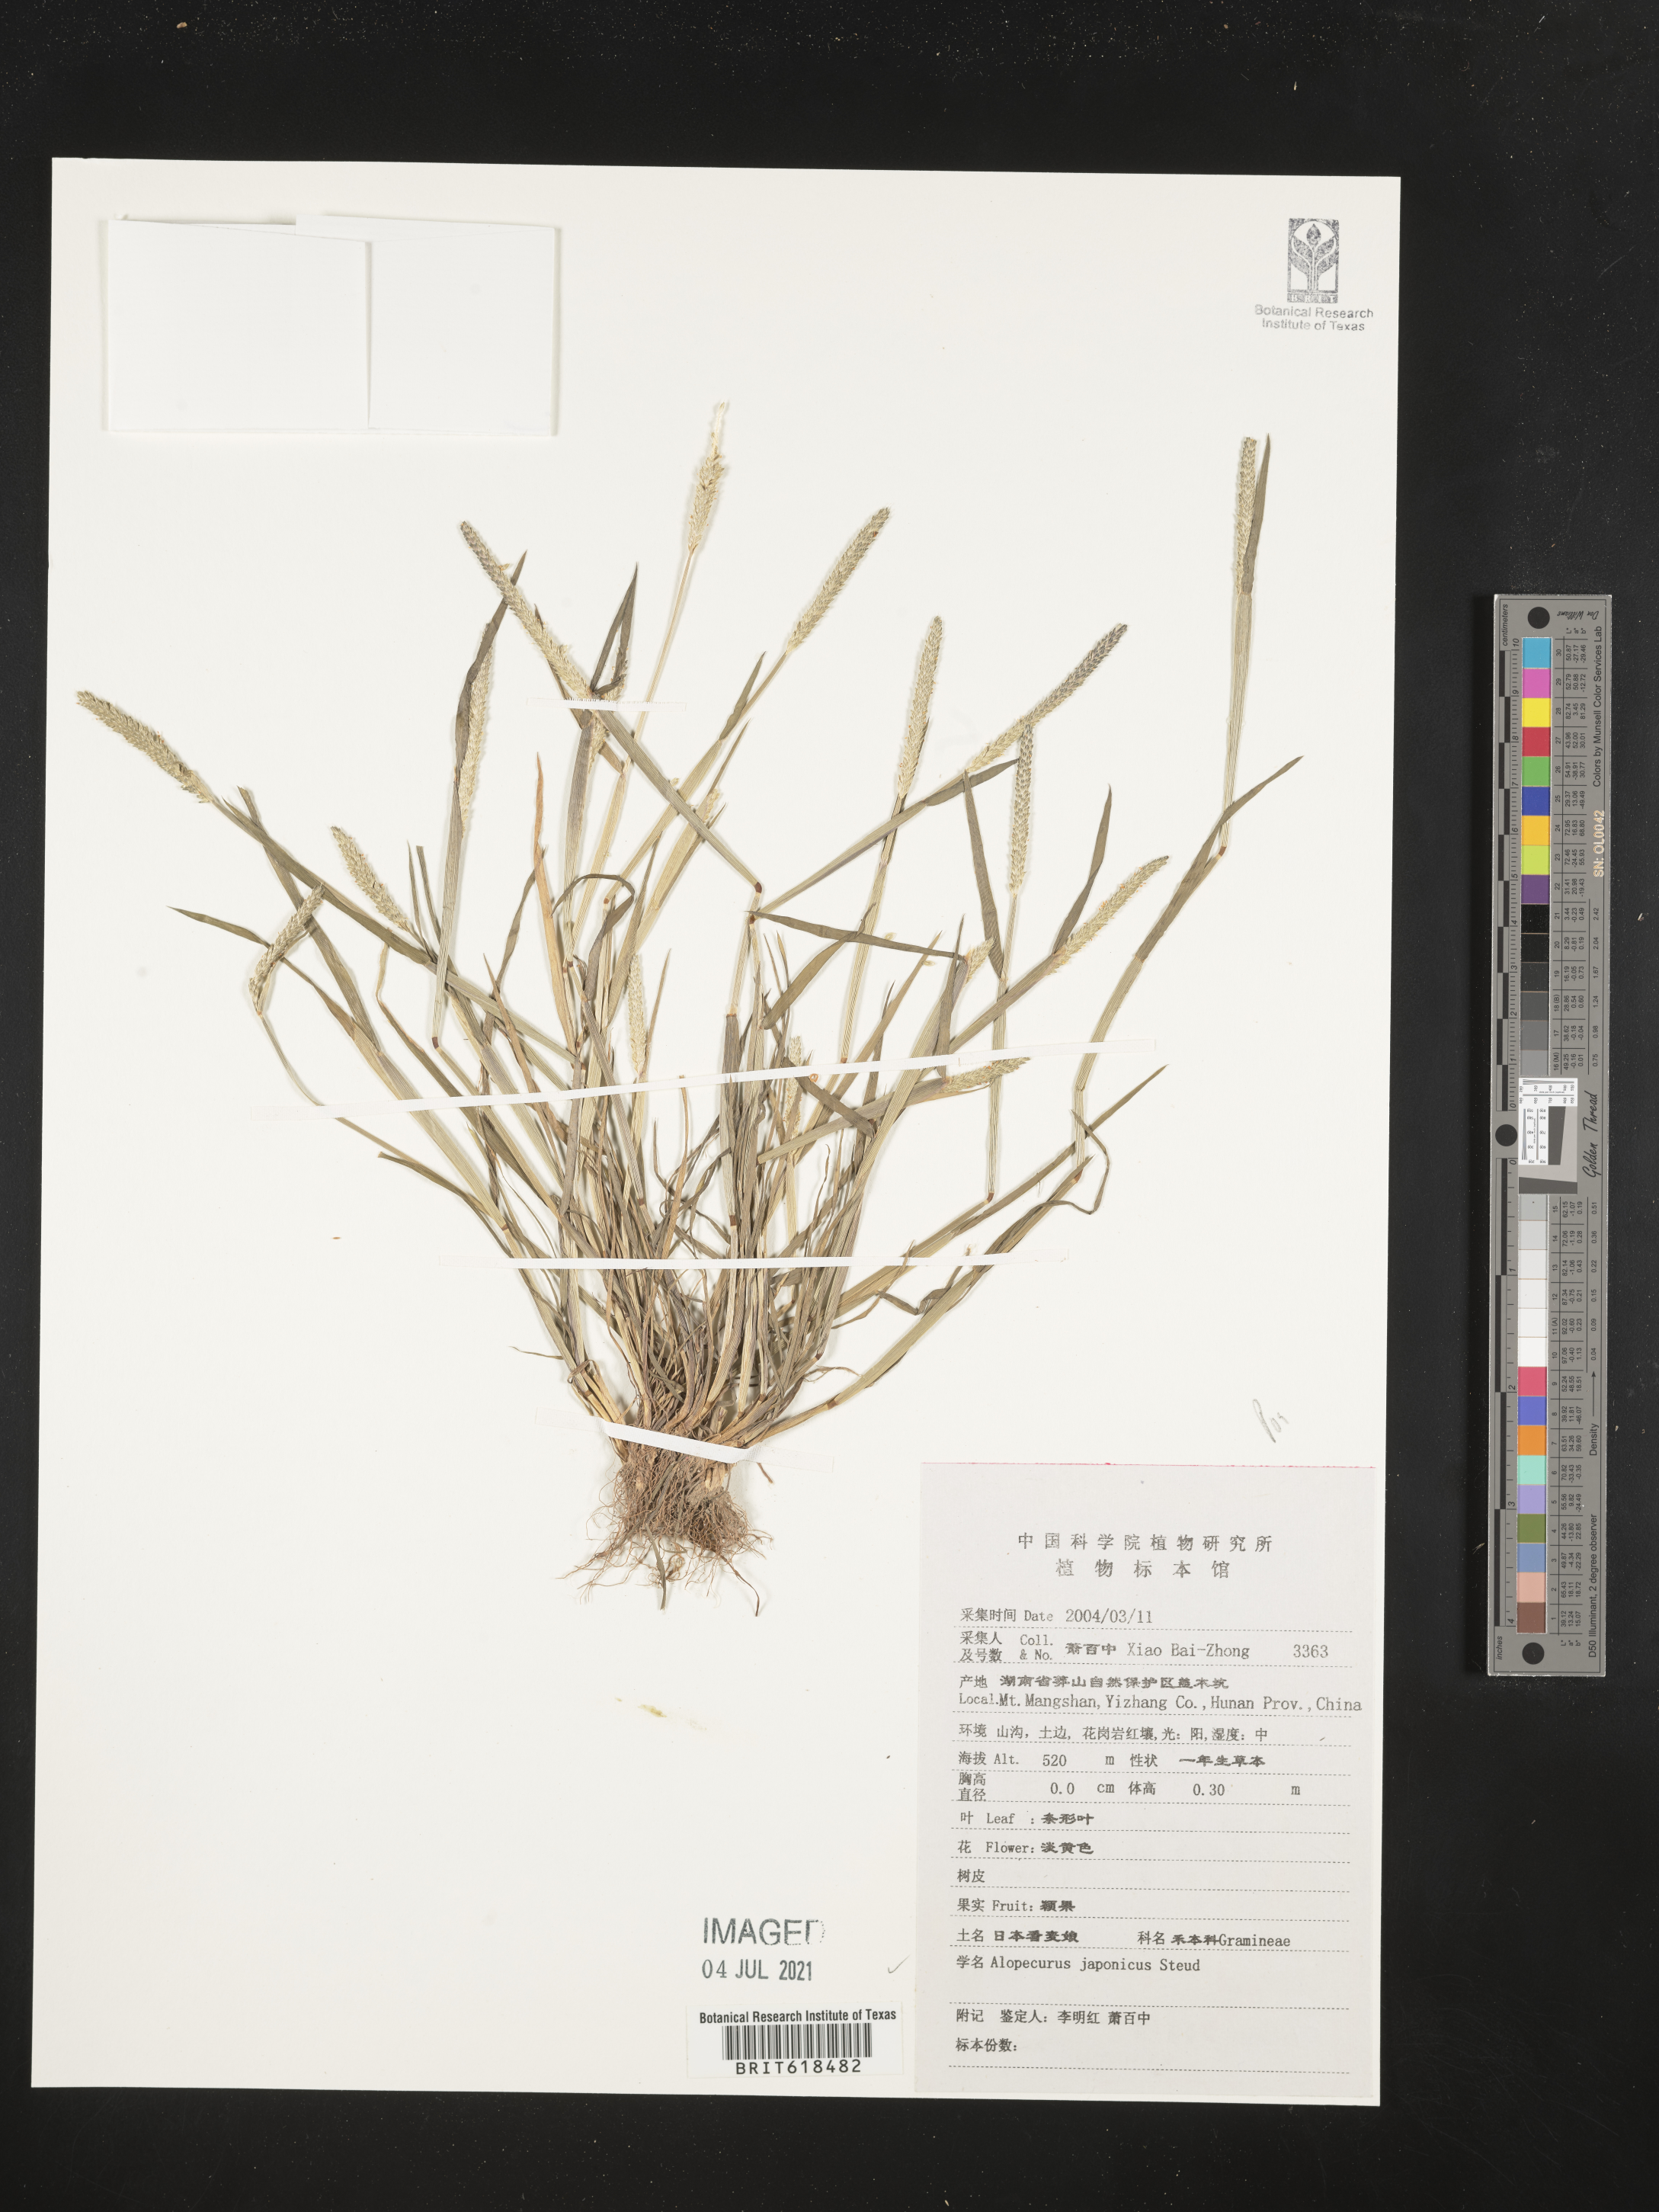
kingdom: Plantae
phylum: Tracheophyta
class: Liliopsida
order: Poales
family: Poaceae
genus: Alopecurus
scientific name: Alopecurus japonicus
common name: Japanese foxtail
